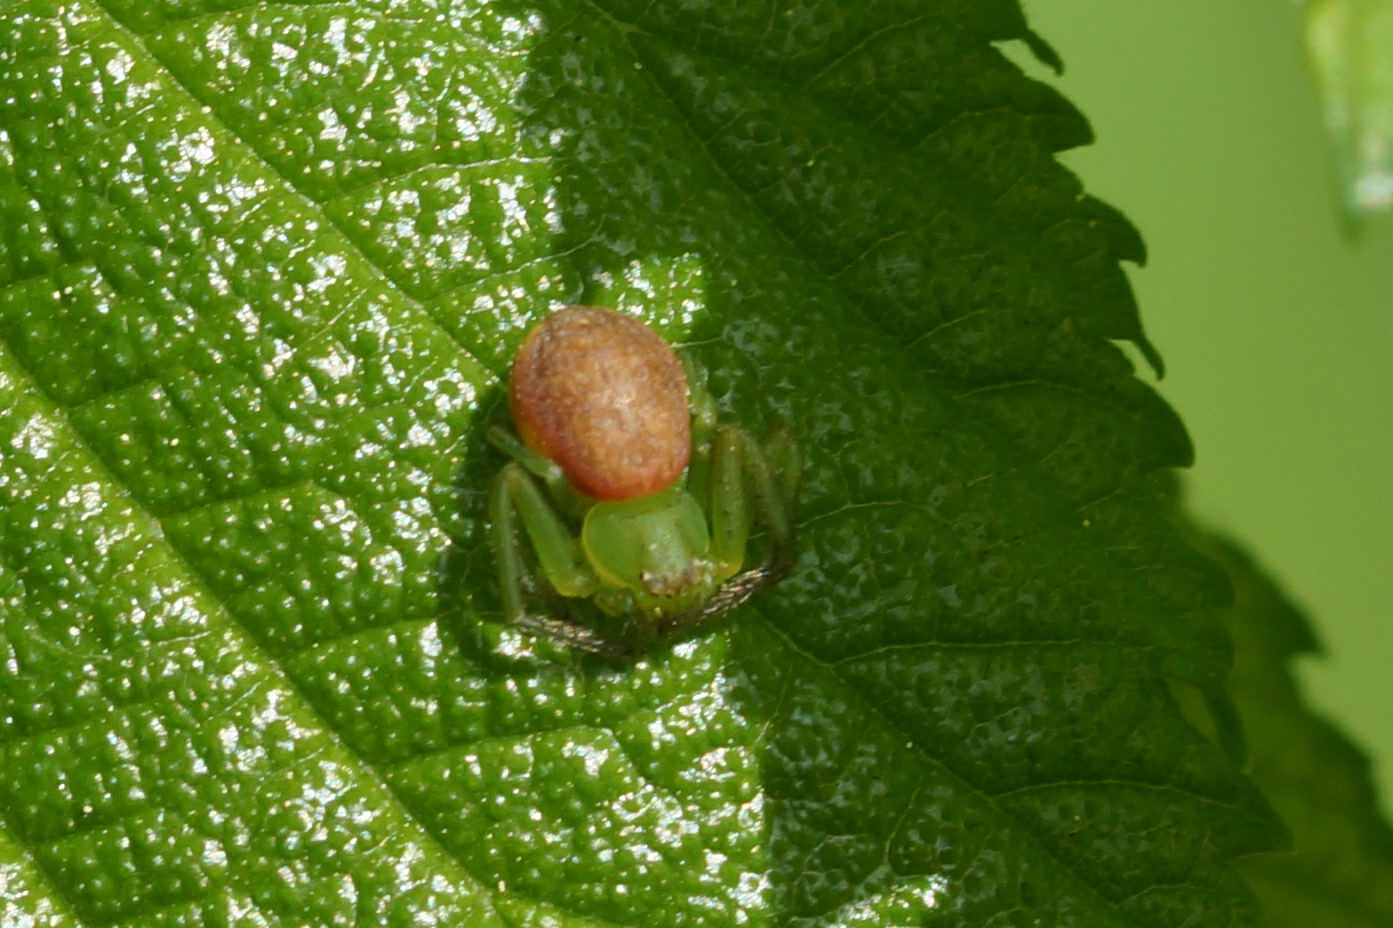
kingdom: Animalia
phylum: Arthropoda
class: Arachnida
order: Araneae
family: Thomisidae
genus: Diaea
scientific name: Diaea dorsata
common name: Grøn krabbeedderkop
